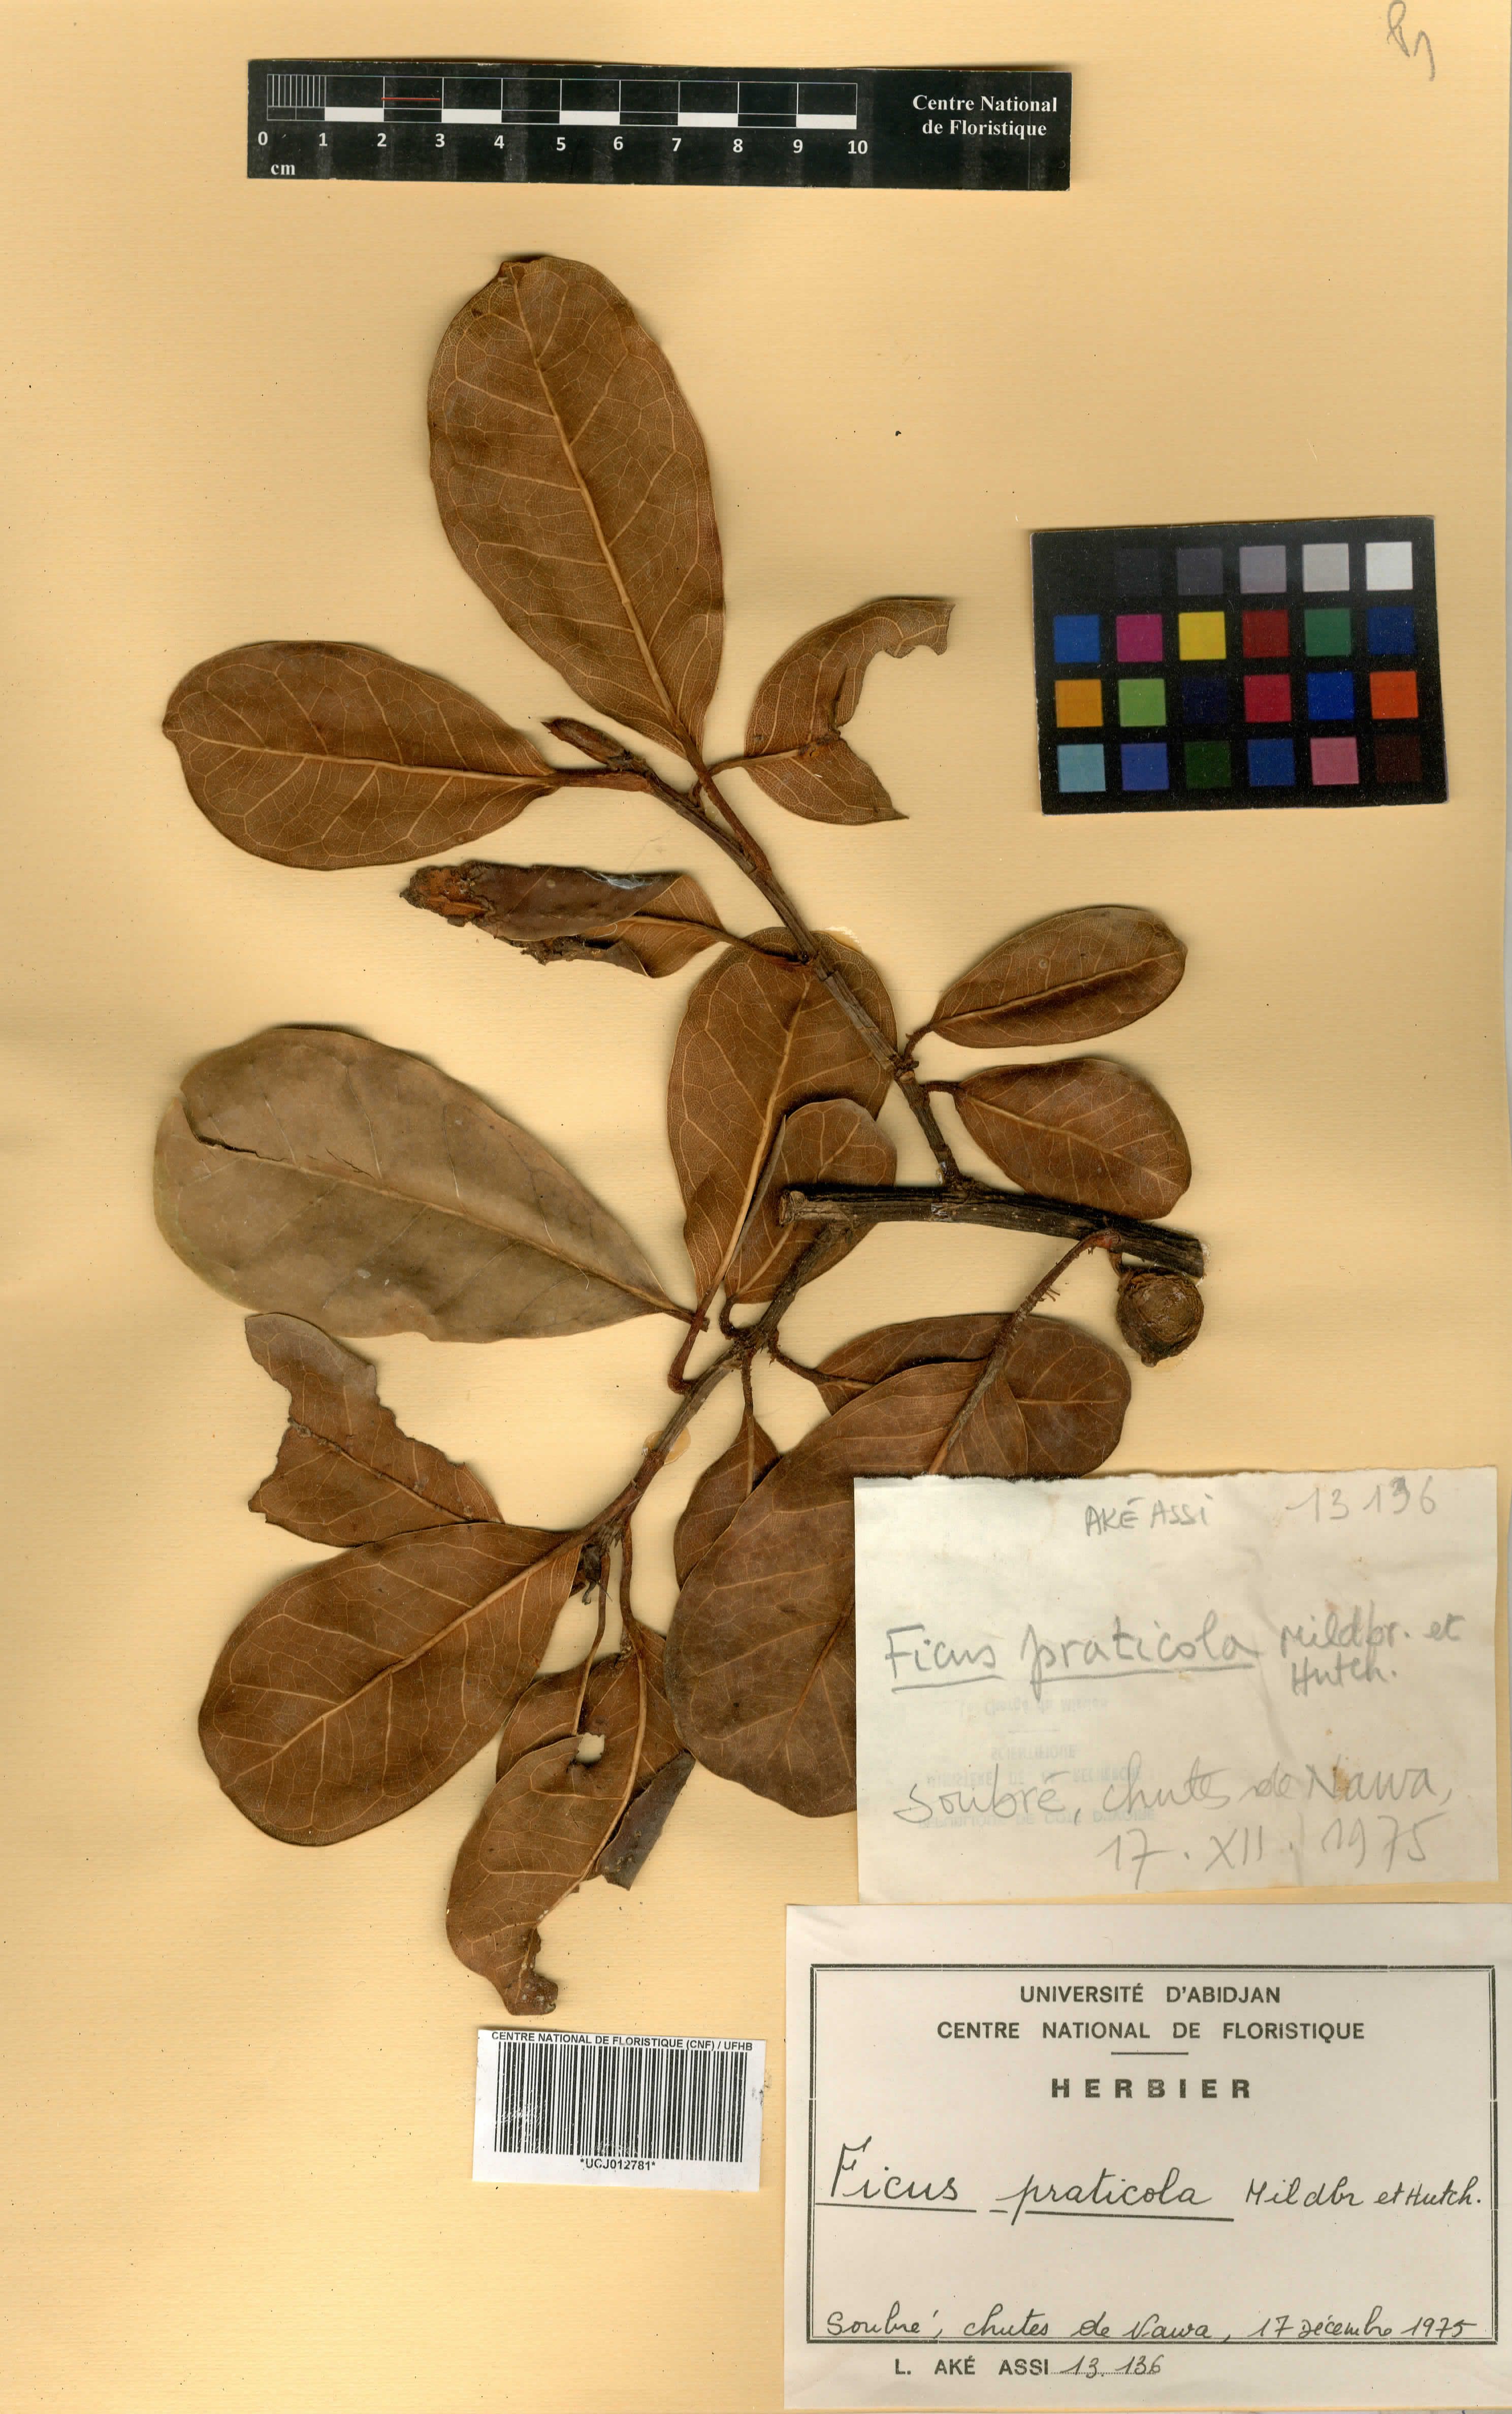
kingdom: Plantae
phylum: Tracheophyta
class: Magnoliopsida
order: Rosales
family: Moraceae
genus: Ficus
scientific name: Ficus conraui
